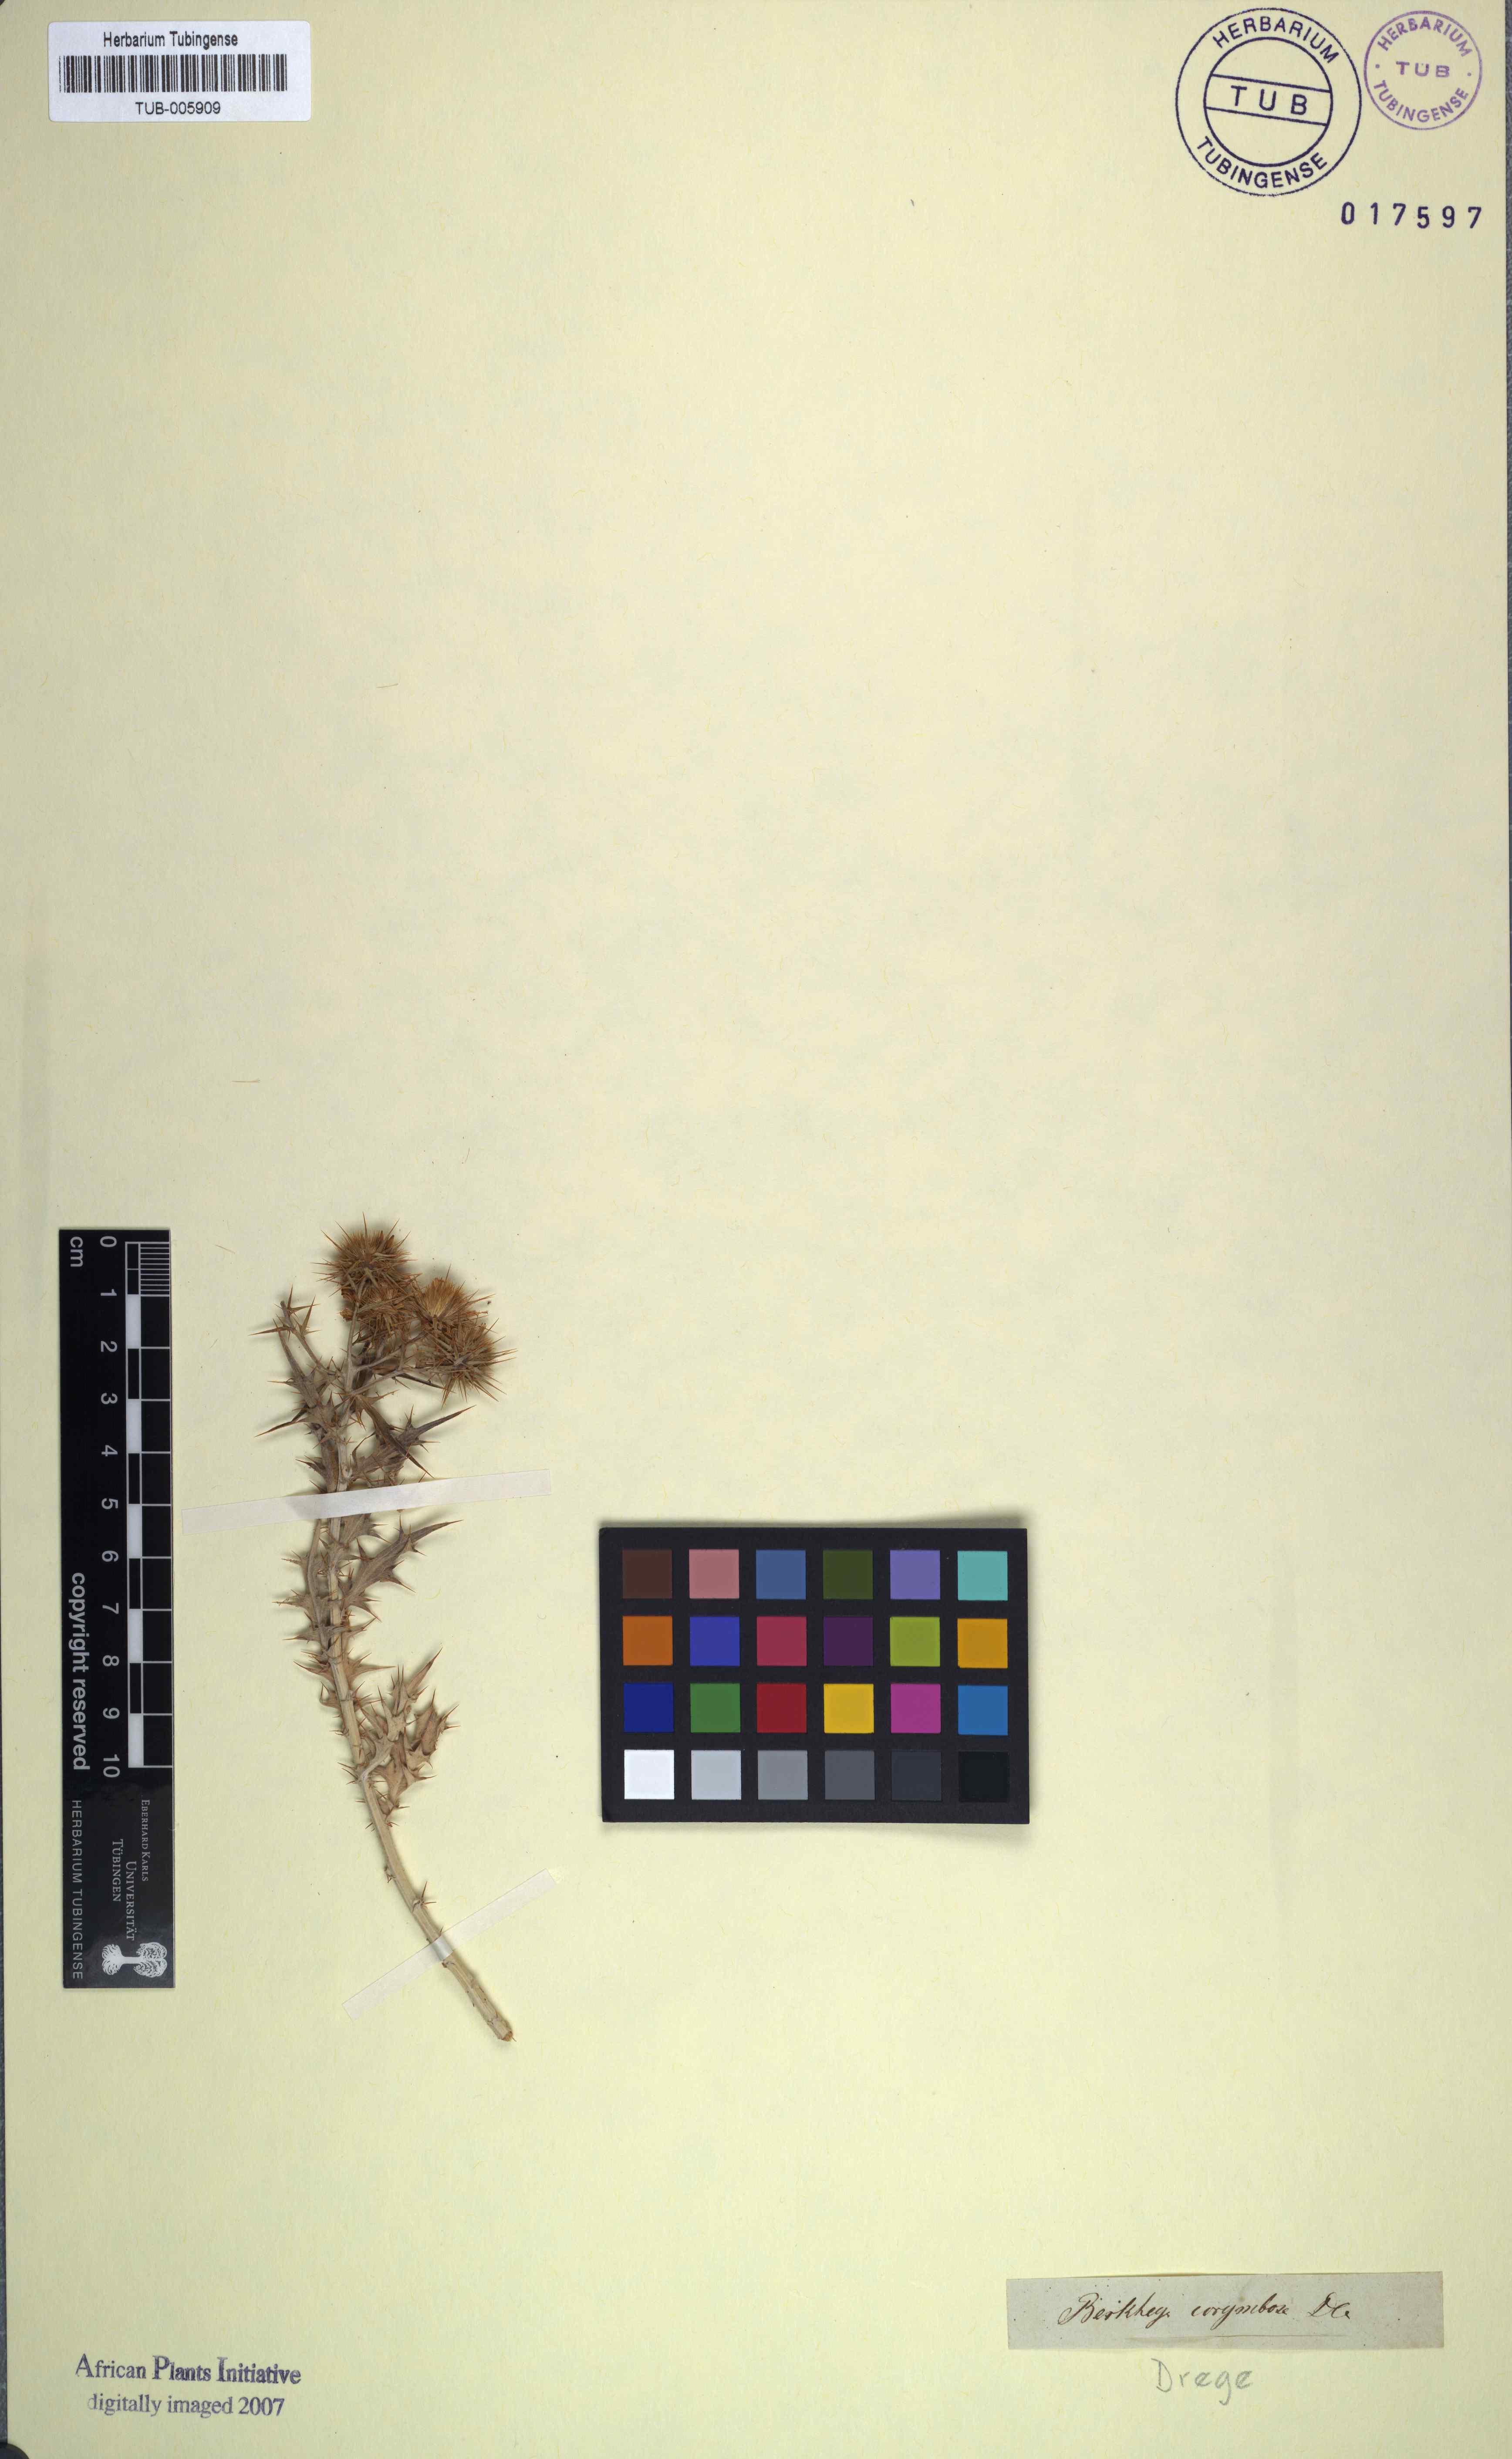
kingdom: Plantae
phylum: Tracheophyta
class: Magnoliopsida
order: Asterales
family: Asteraceae
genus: Berkheya
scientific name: Berkheya canescens
